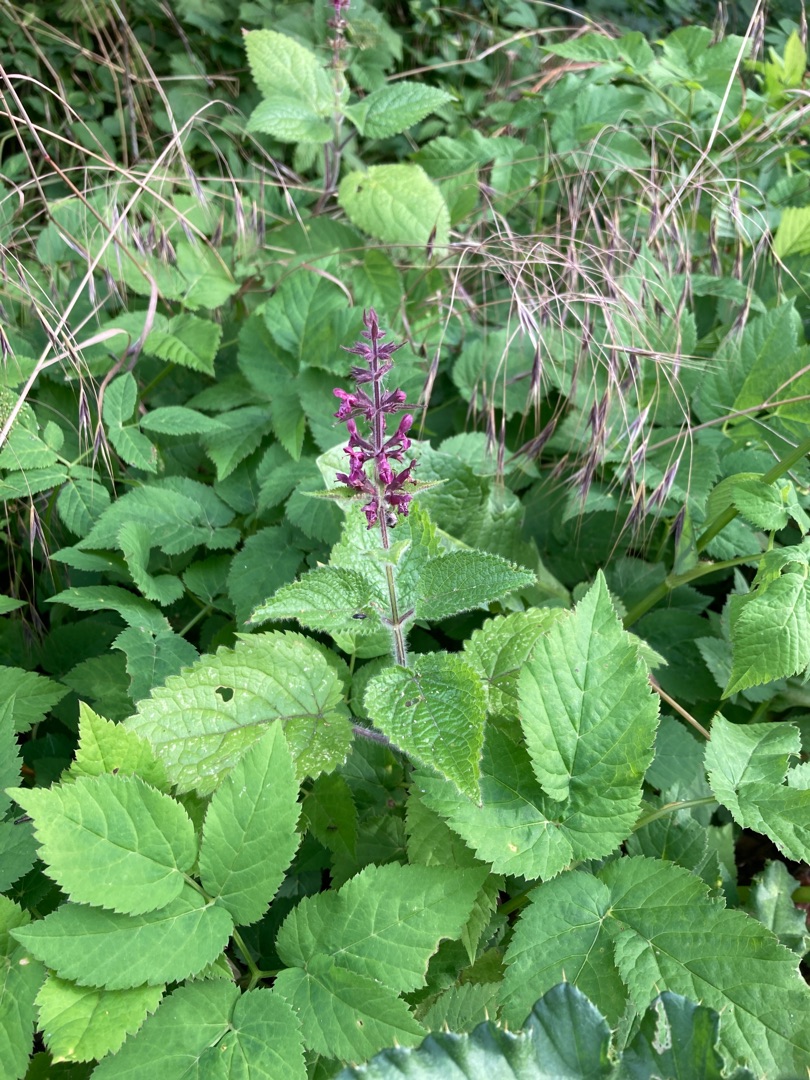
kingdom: Plantae
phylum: Tracheophyta
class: Magnoliopsida
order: Lamiales
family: Lamiaceae
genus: Stachys
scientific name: Stachys sylvatica
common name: Skov-galtetand
